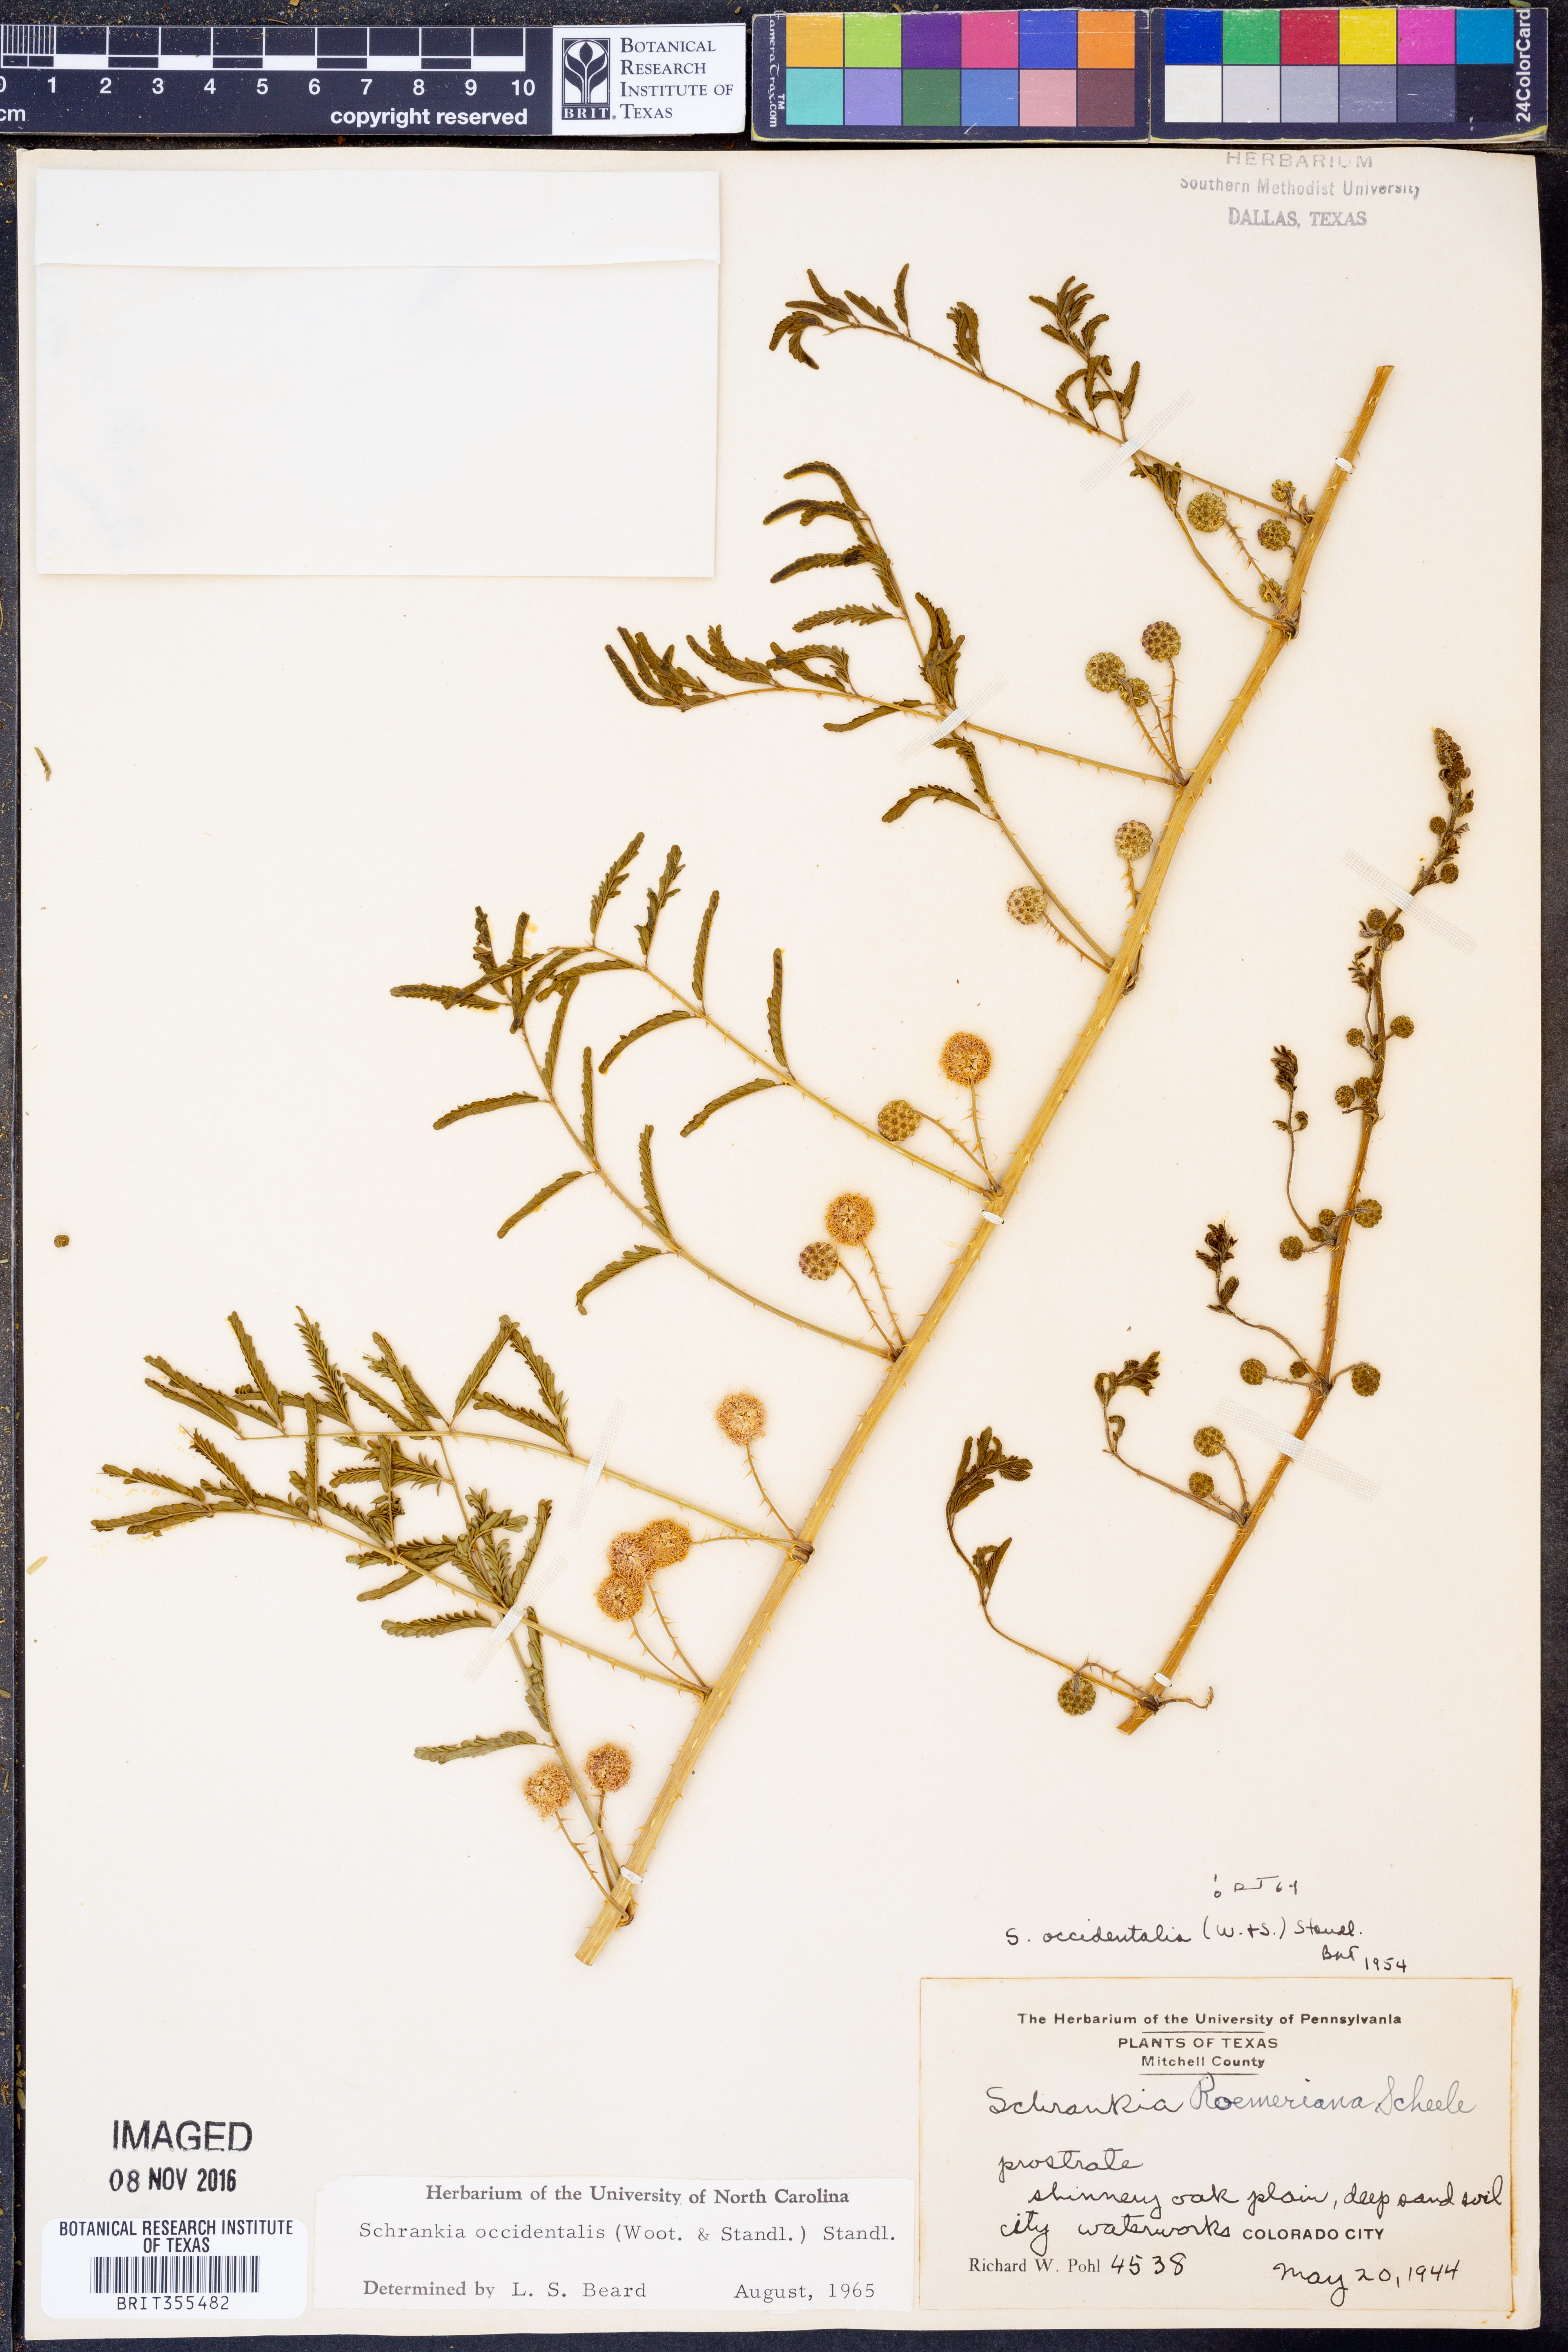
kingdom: Plantae
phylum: Tracheophyta
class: Magnoliopsida
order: Fabales
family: Fabaceae
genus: Mimosa
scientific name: Mimosa quadrivalvis
